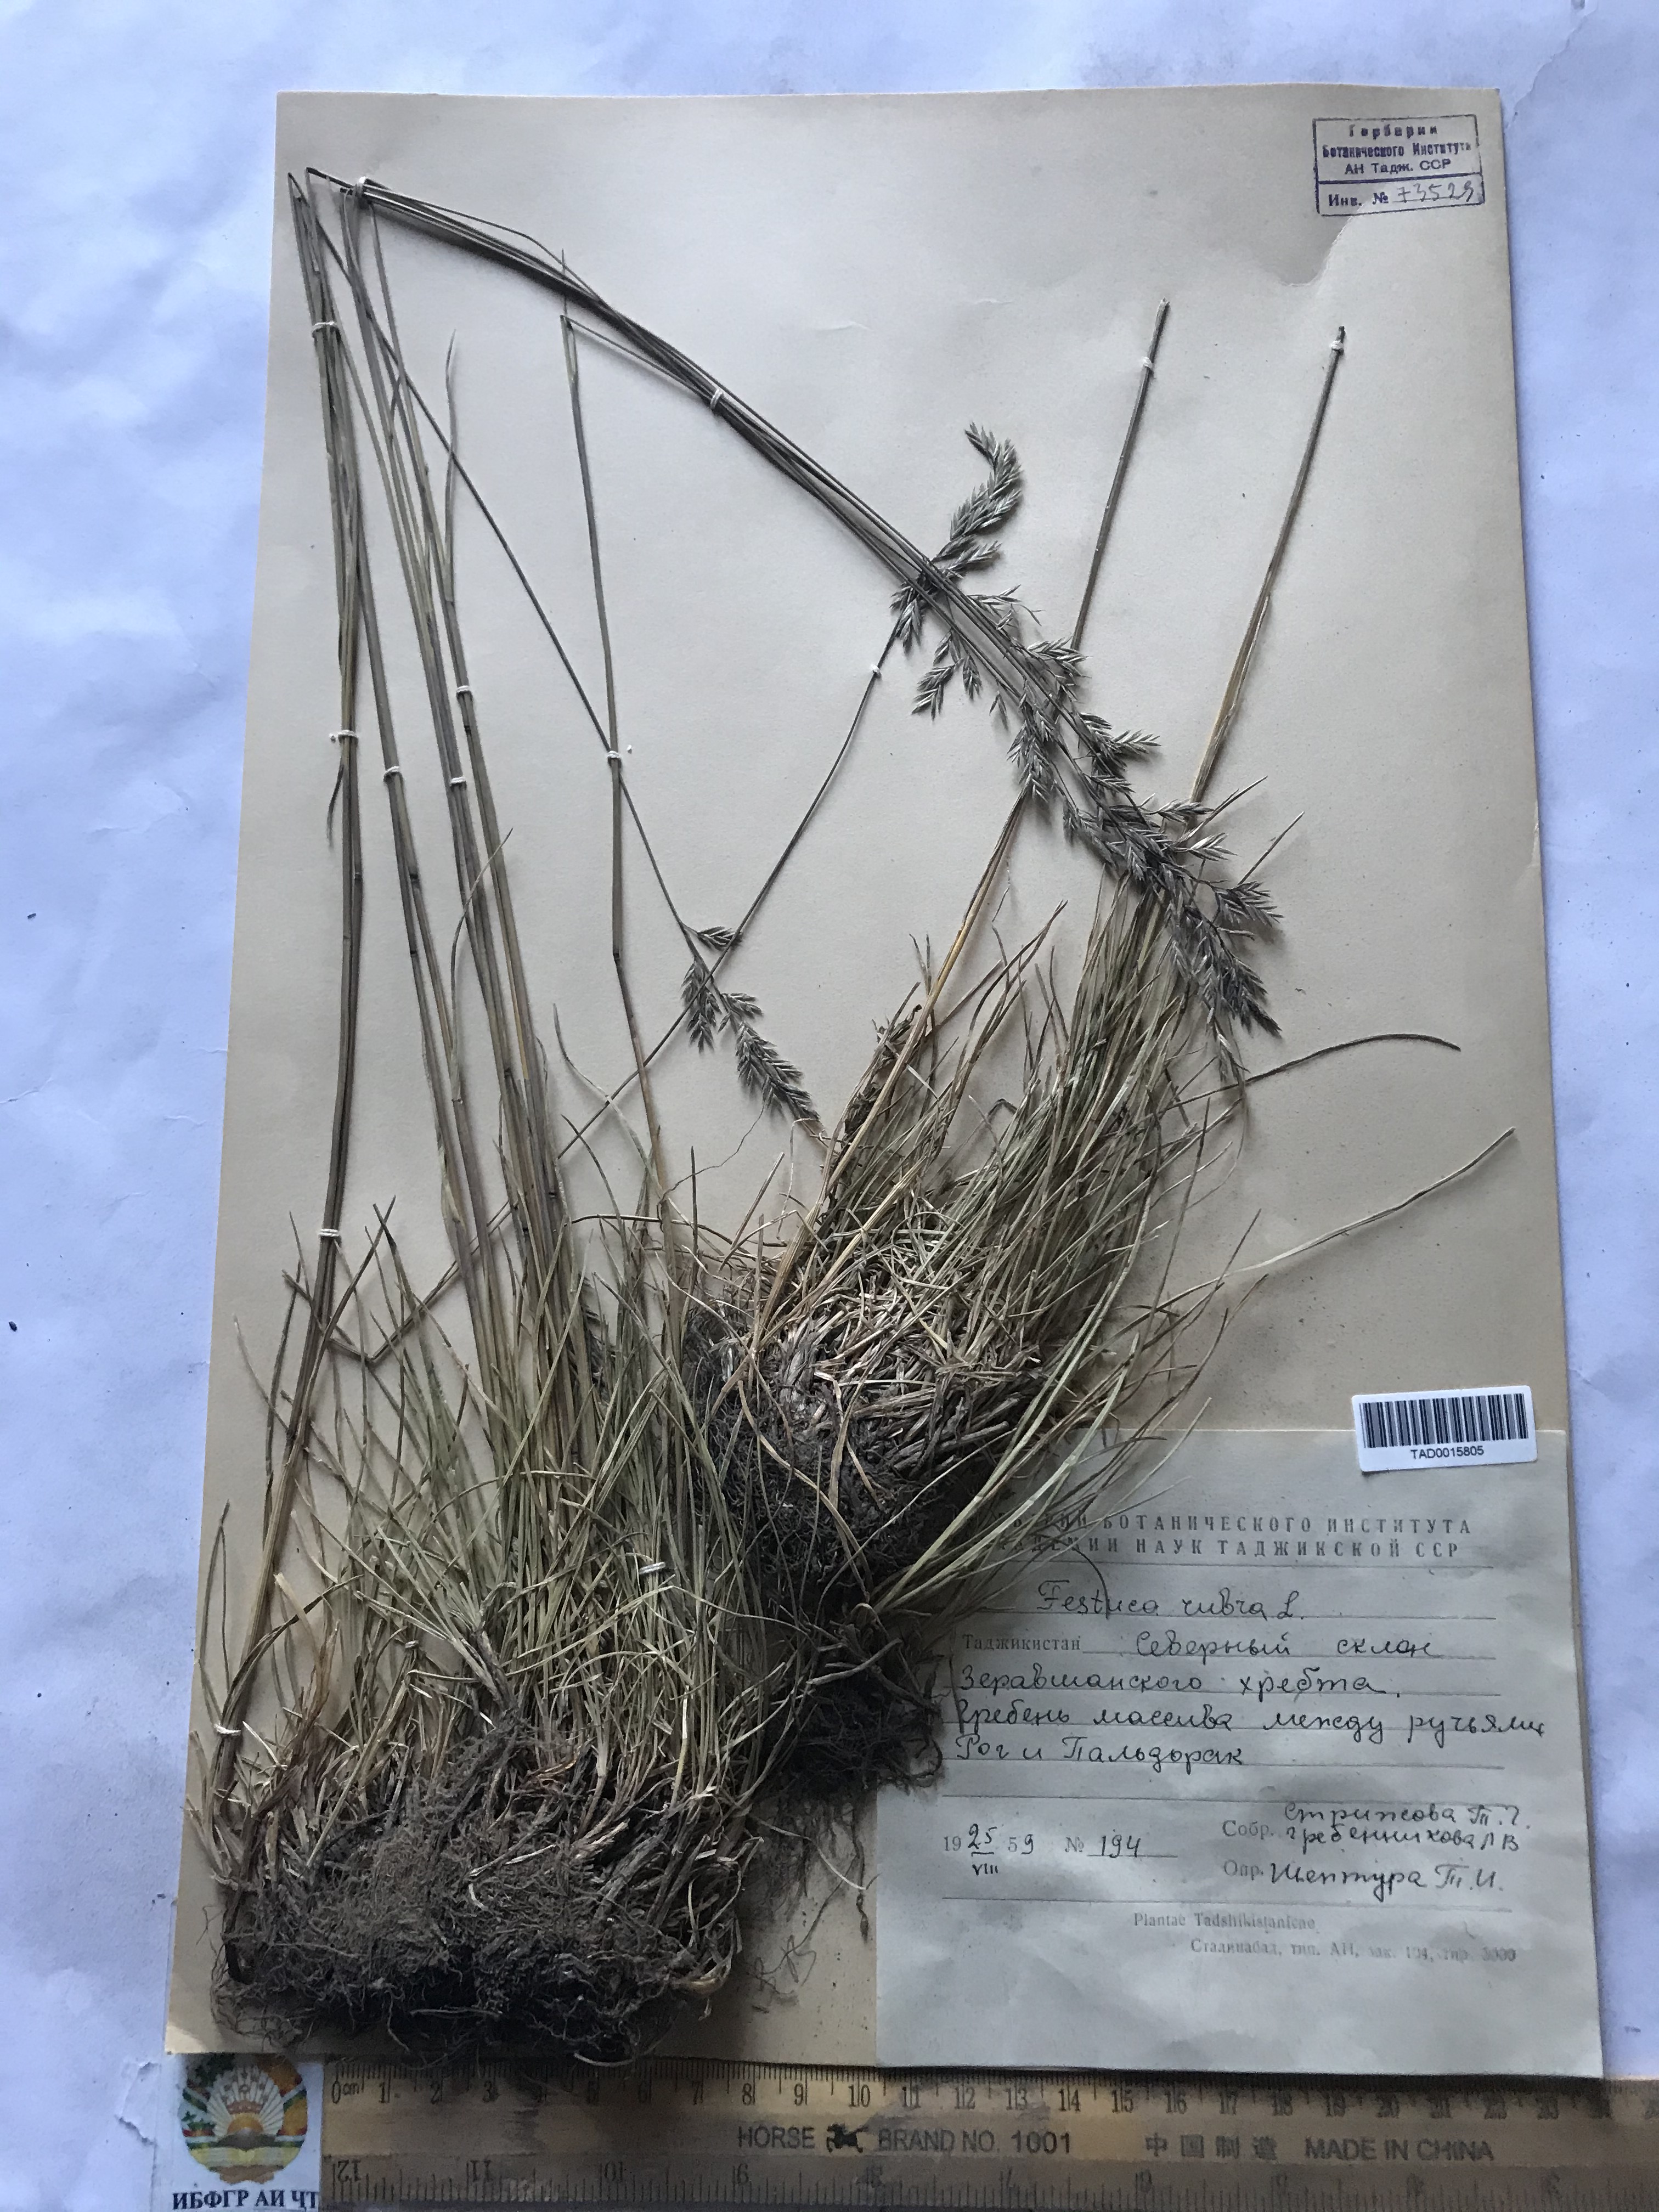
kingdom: Plantae
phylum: Tracheophyta
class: Liliopsida
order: Poales
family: Poaceae
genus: Festuca
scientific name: Festuca rubra
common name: Red fescue
